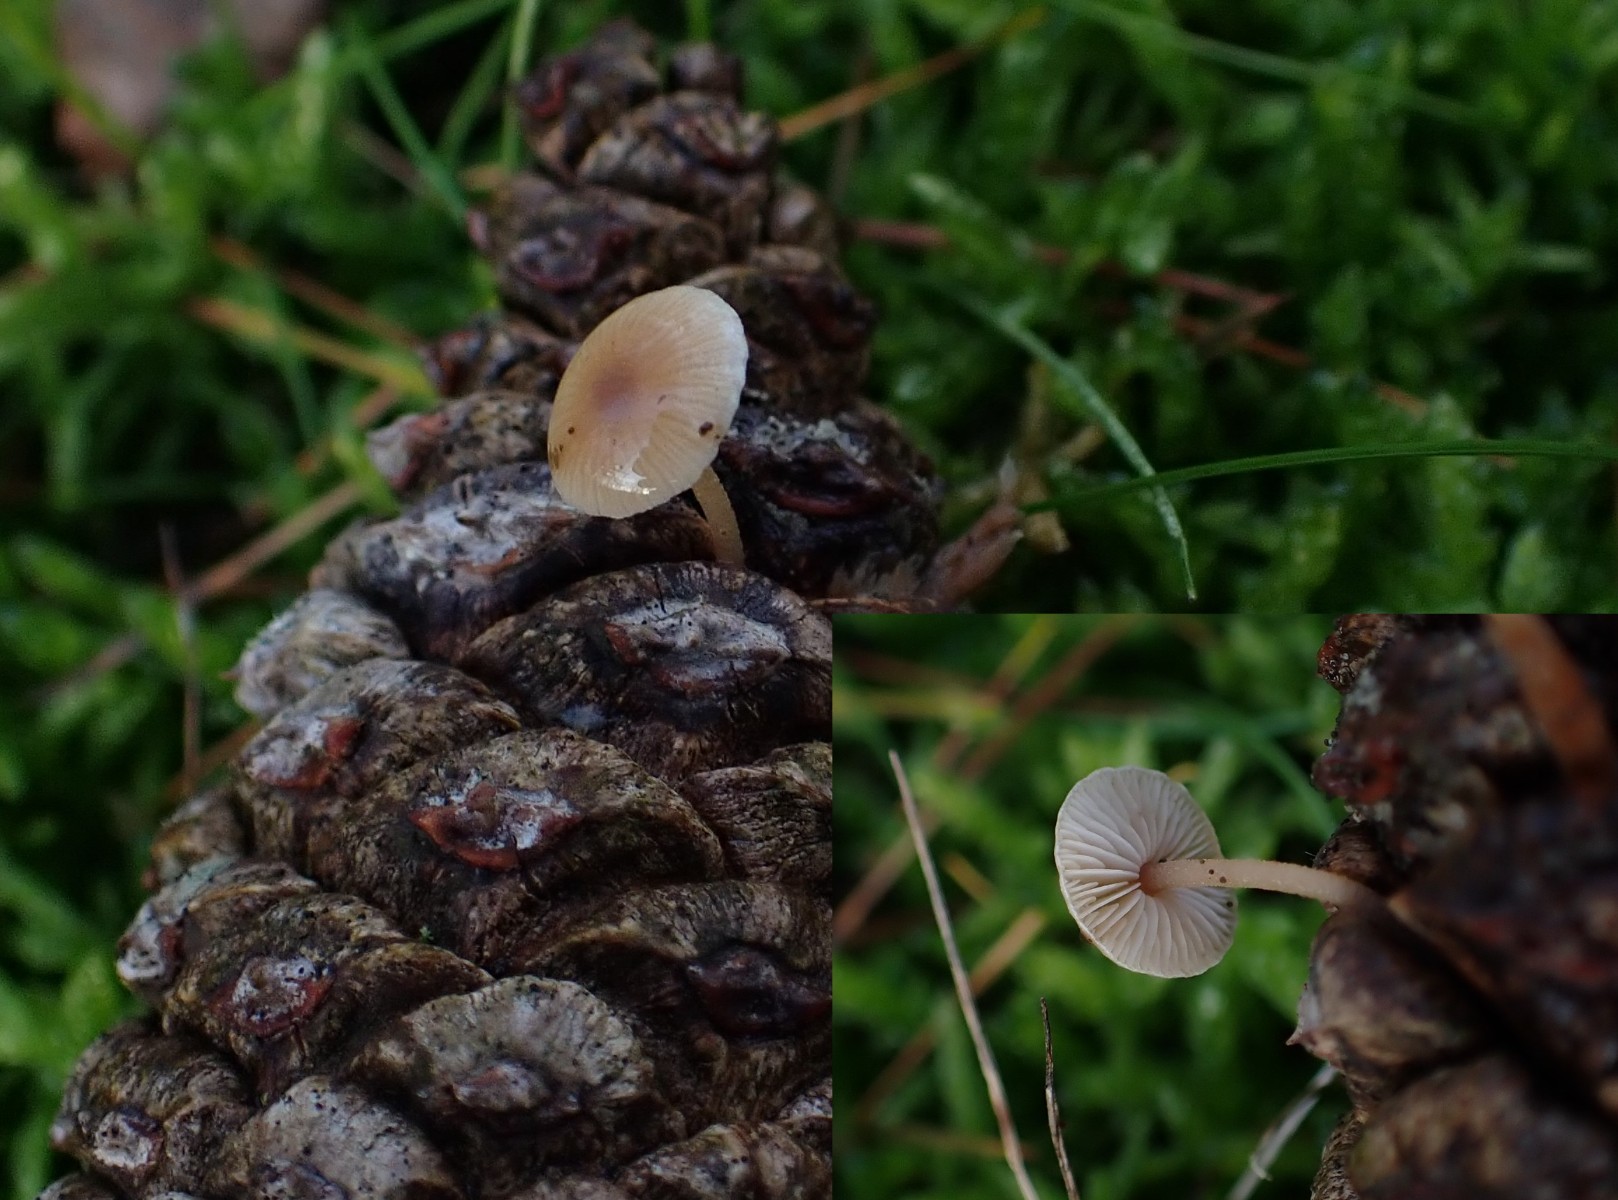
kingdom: Fungi
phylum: Basidiomycota
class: Agaricomycetes
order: Agaricales
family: Marasmiaceae
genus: Baeospora
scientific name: Baeospora myosura
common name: koglebruskhat
